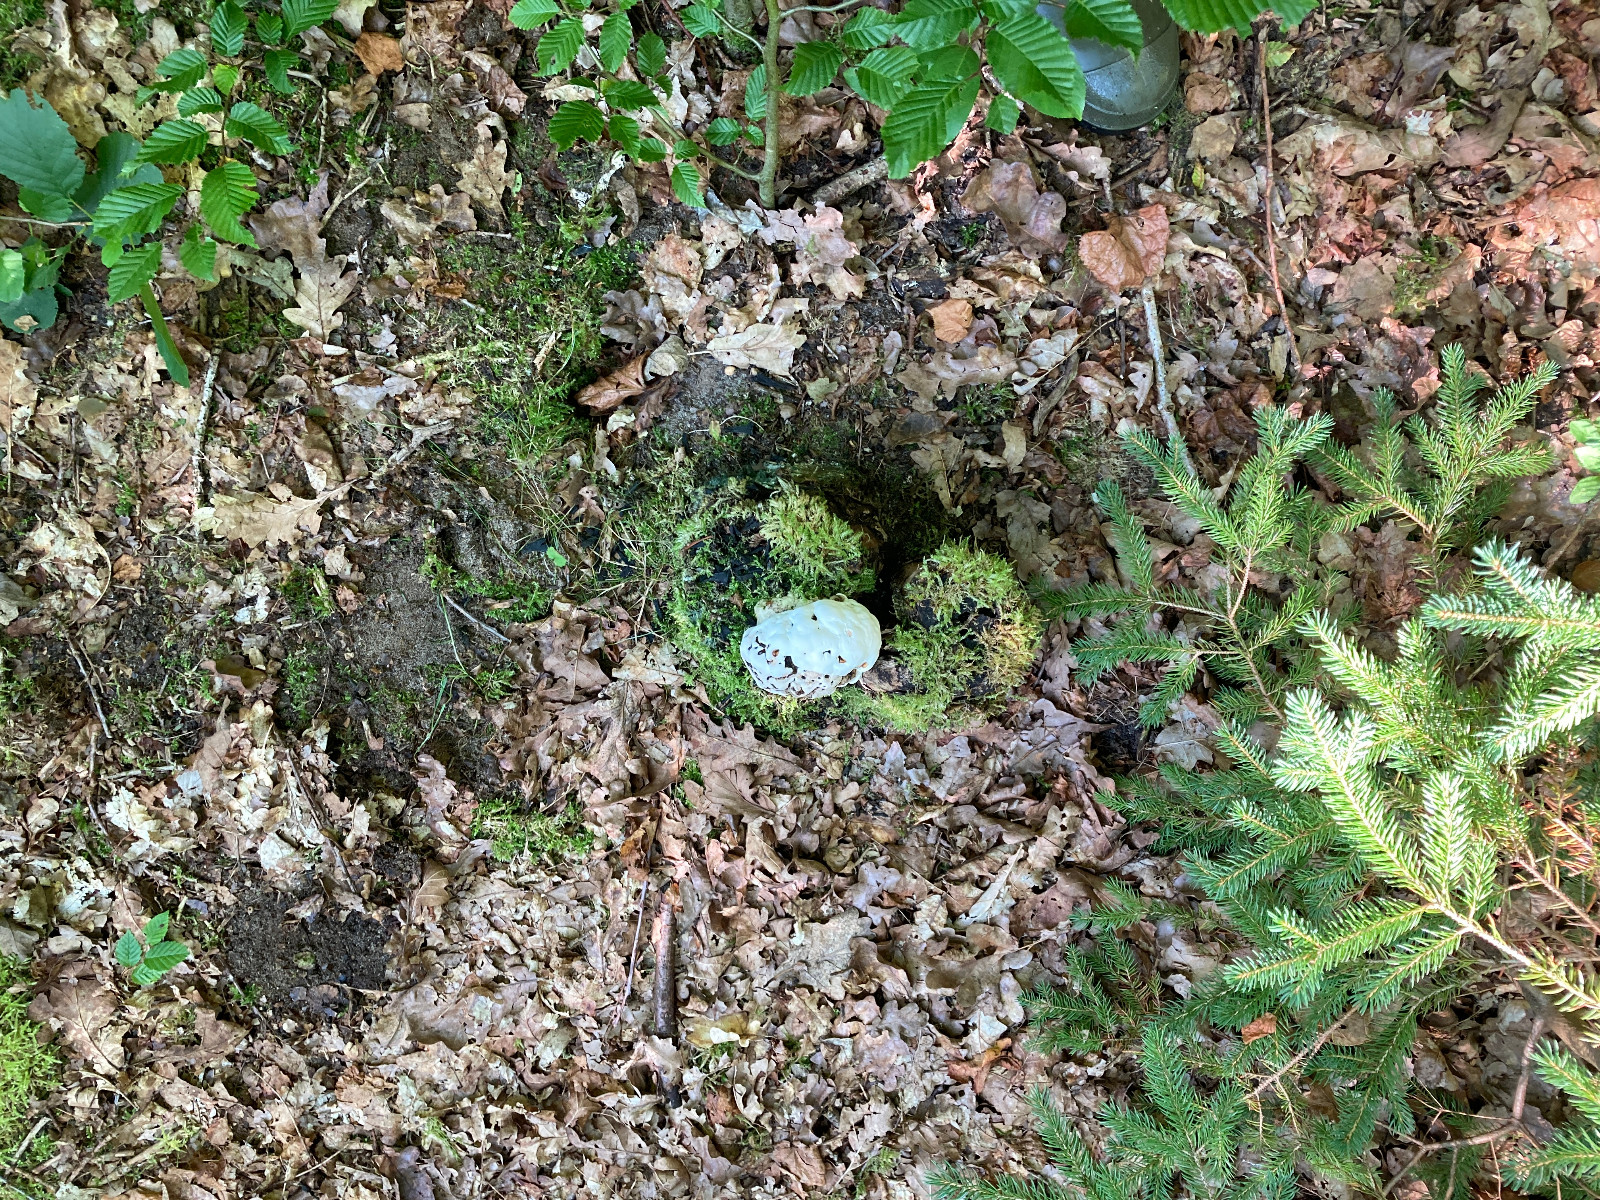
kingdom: Fungi
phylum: Basidiomycota
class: Agaricomycetes
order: Polyporales
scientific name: Polyporales
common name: poresvampordenen
